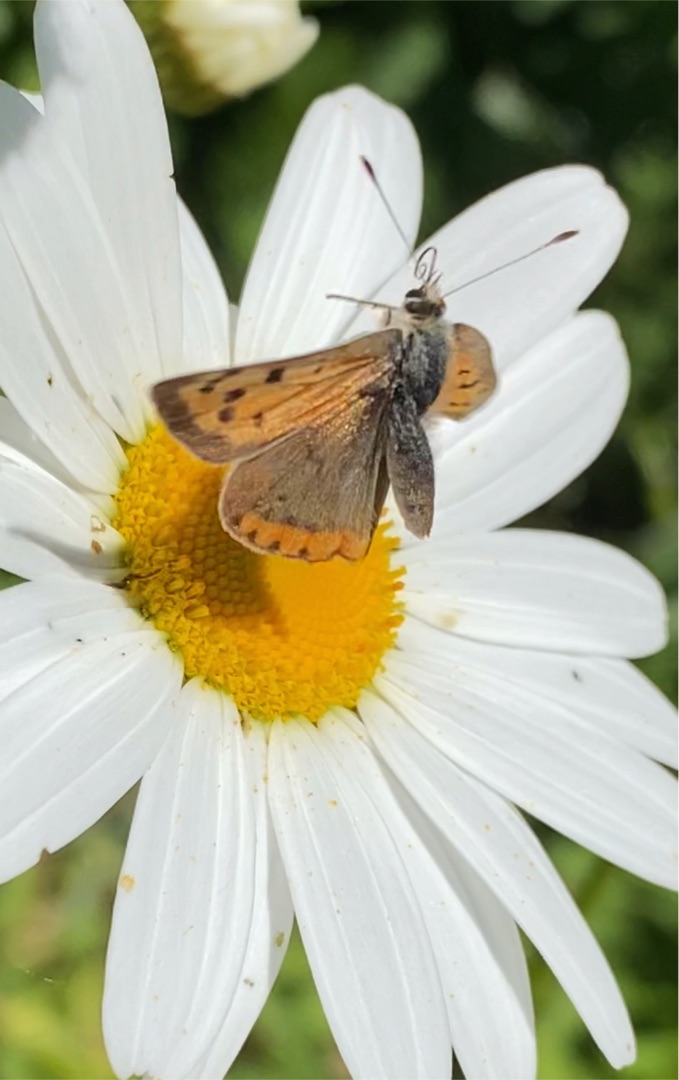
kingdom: Animalia
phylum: Arthropoda
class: Insecta
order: Lepidoptera
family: Lycaenidae
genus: Lycaena
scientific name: Lycaena phlaeas
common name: Lille ildfugl
